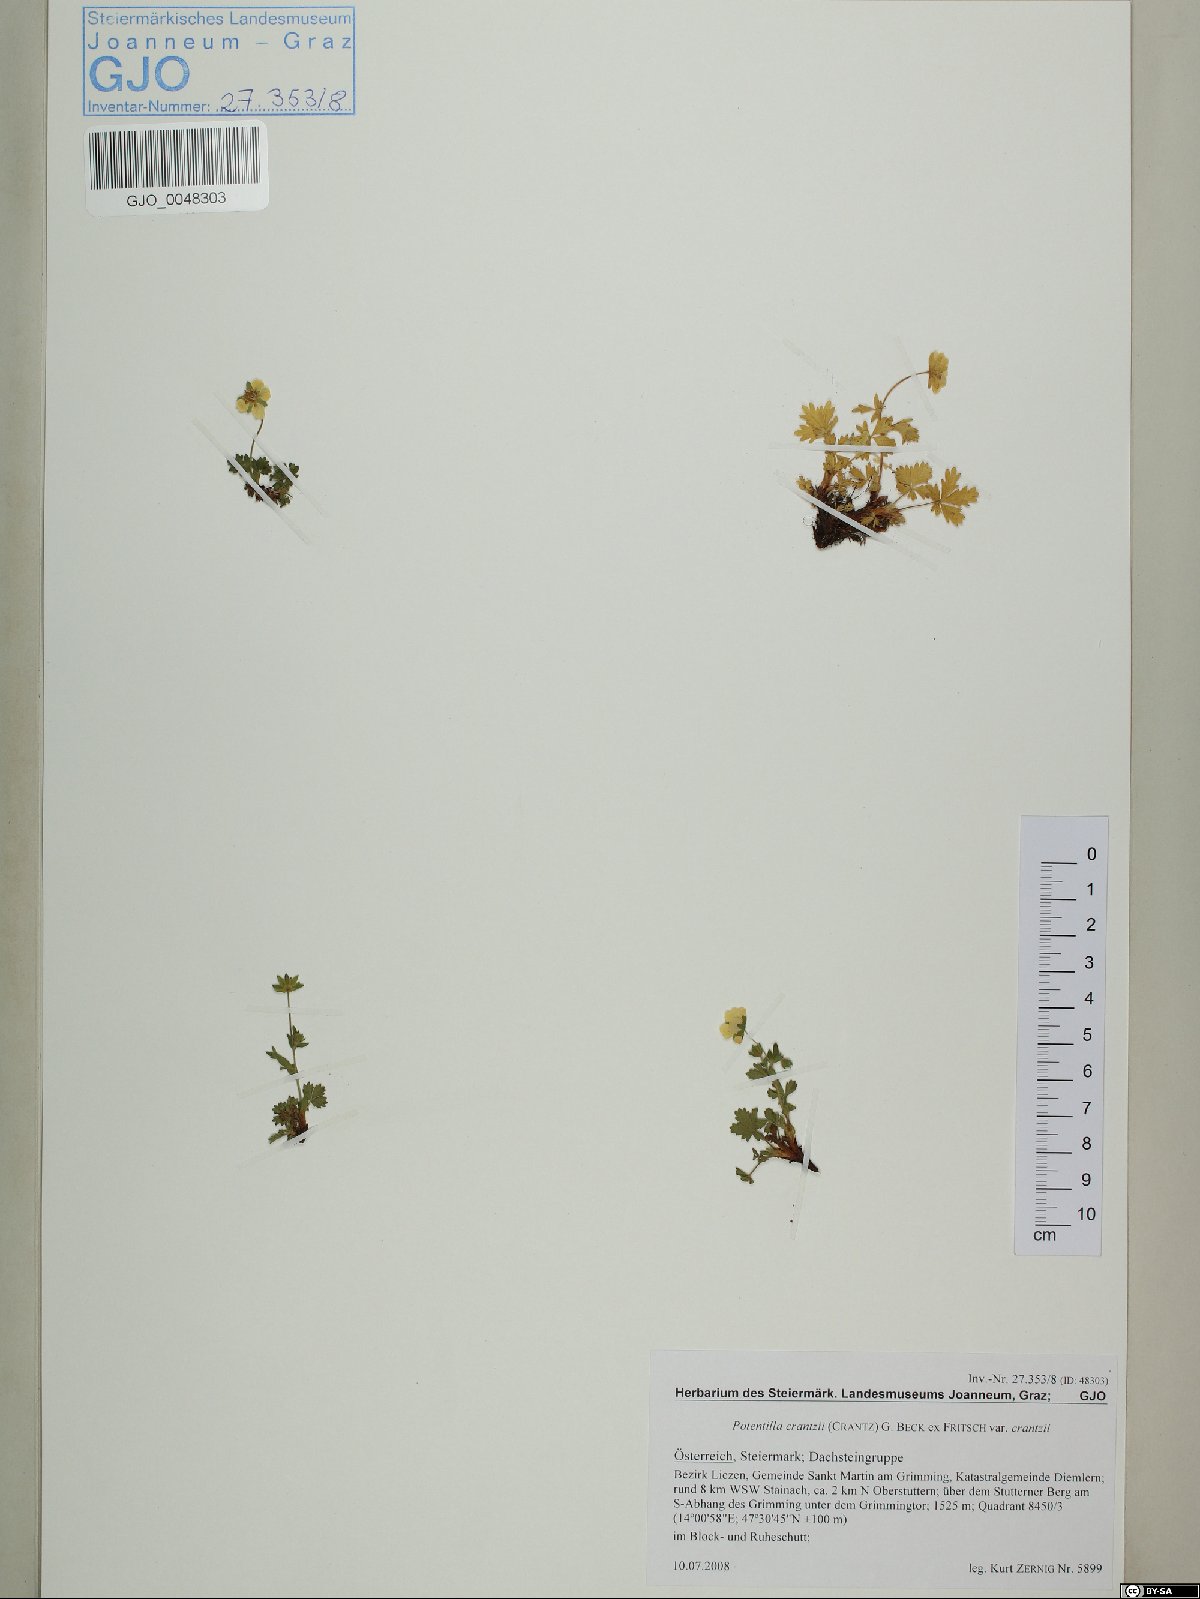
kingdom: Plantae
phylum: Tracheophyta
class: Magnoliopsida
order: Rosales
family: Rosaceae
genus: Potentilla
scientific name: Potentilla crantzii
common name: Alpine cinquefoil
